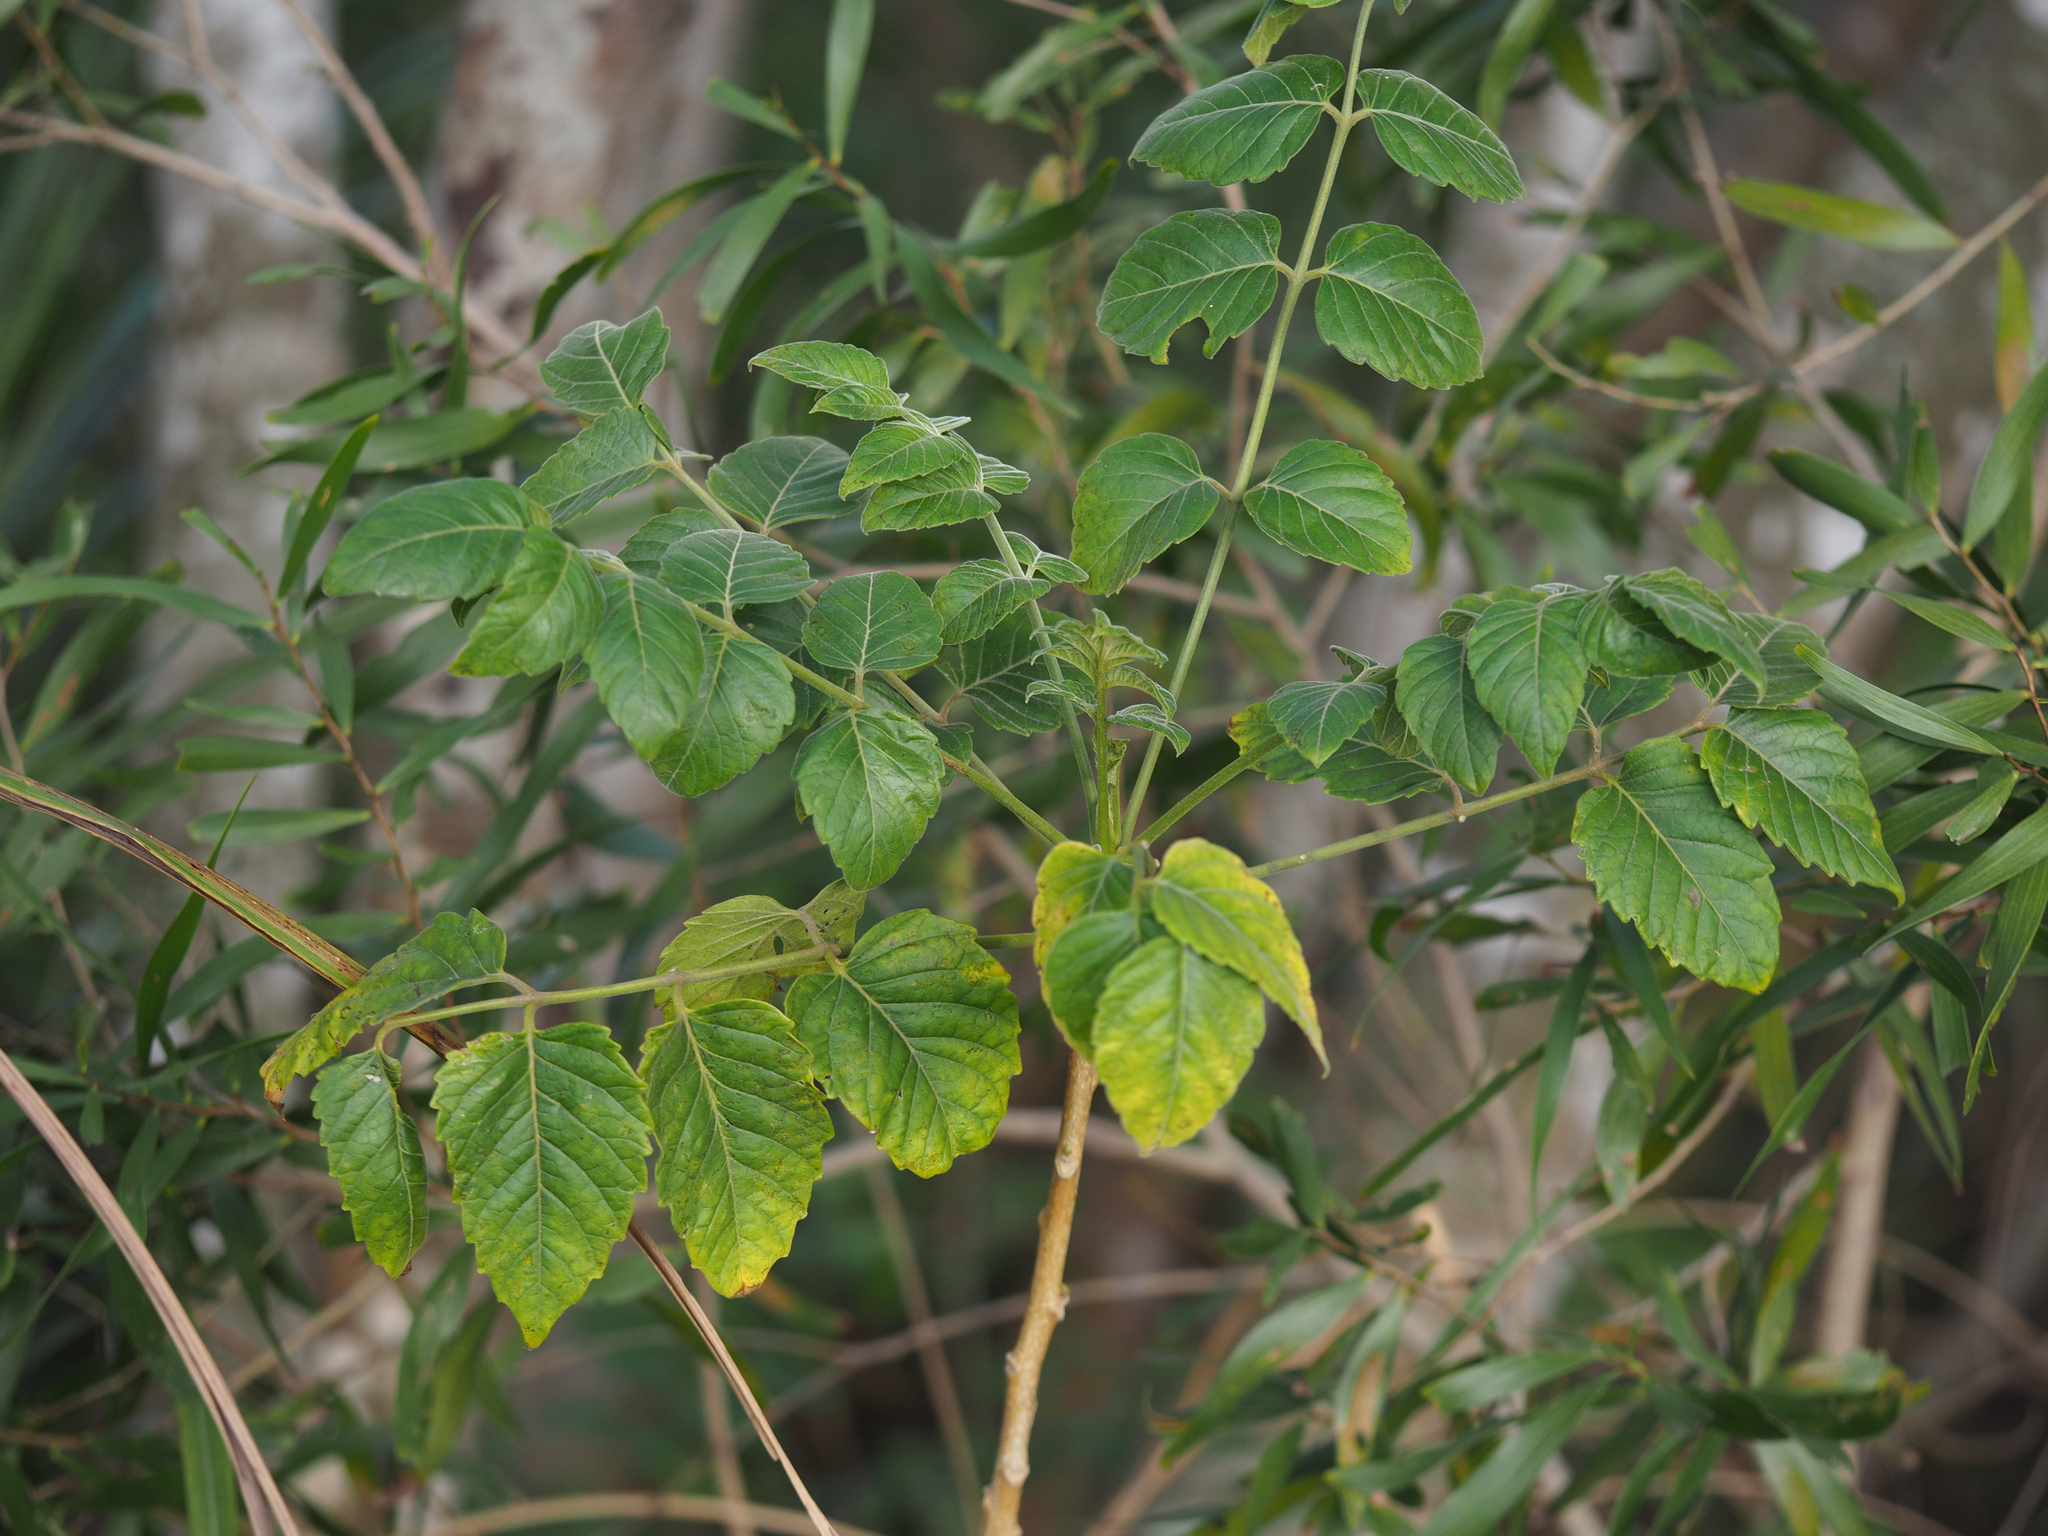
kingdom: Plantae
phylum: Tracheophyta
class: Magnoliopsida
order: Sapindales
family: Simaroubaceae
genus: Brucea
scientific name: Brucea javanica
